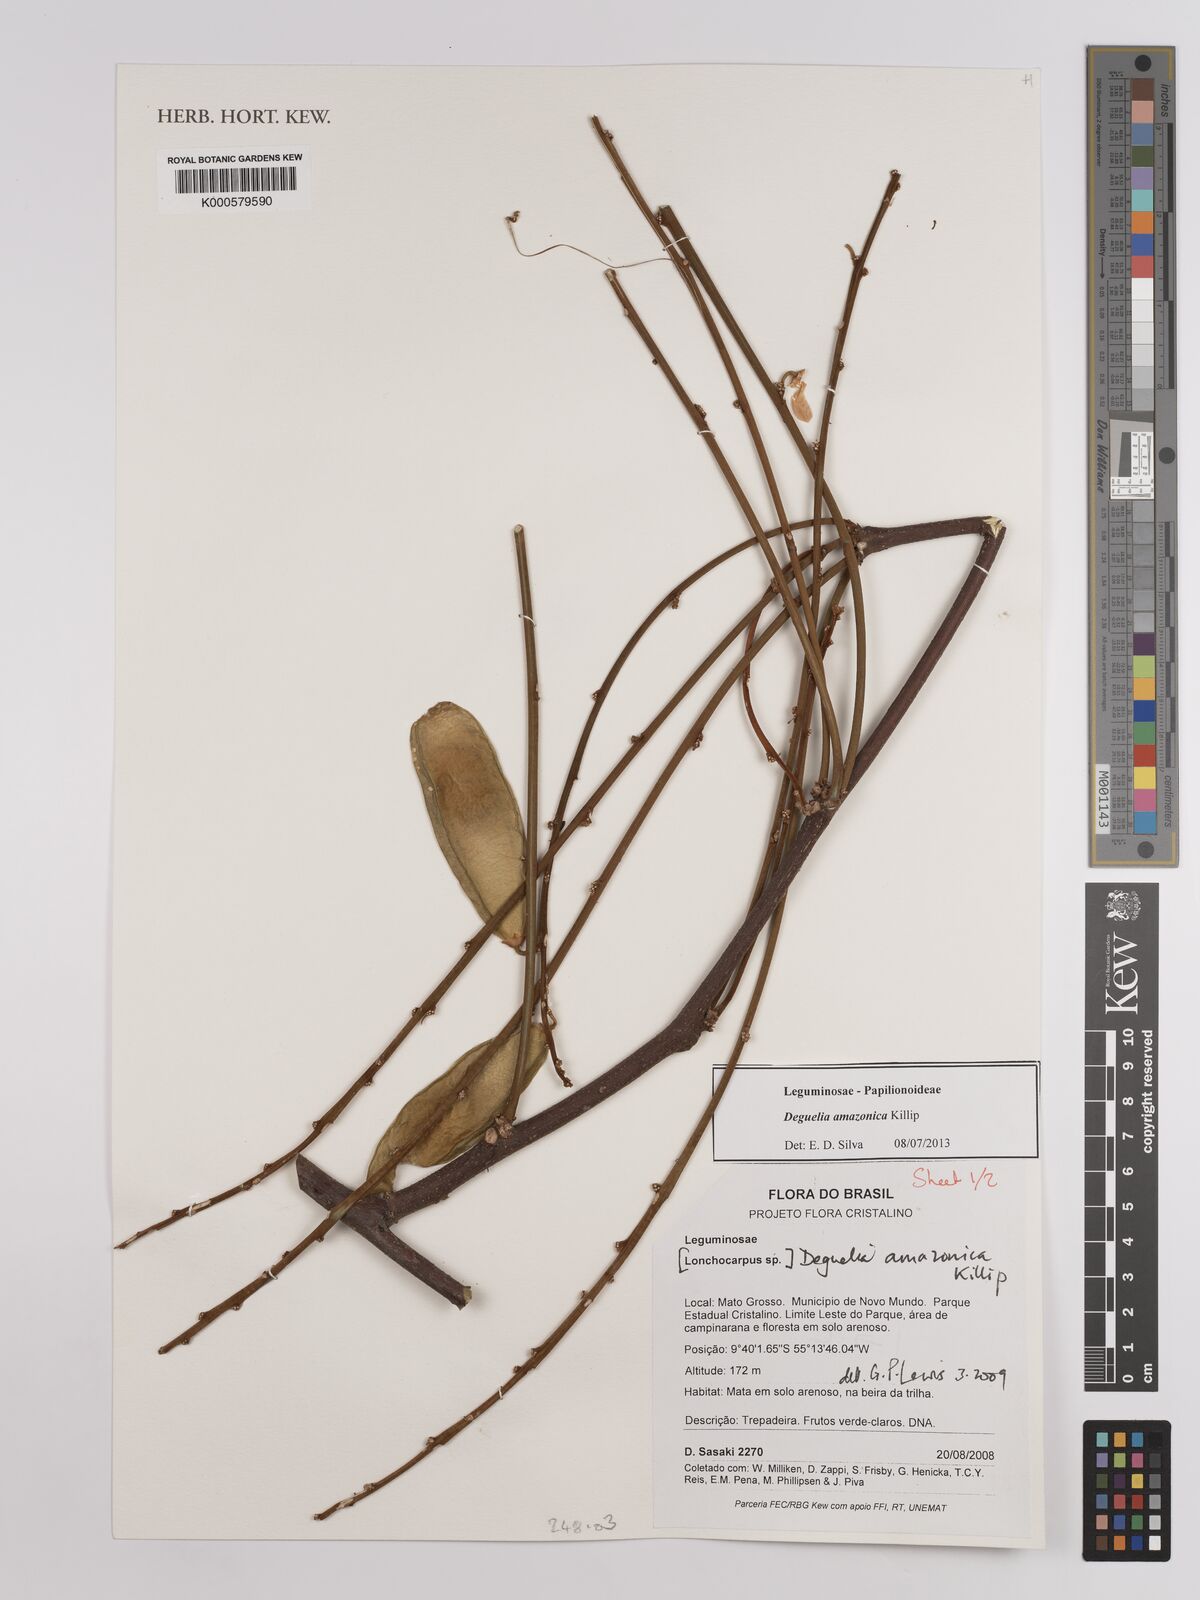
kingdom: Plantae
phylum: Tracheophyta
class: Magnoliopsida
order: Fabales
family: Fabaceae
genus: Deguelia
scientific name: Deguelia amazonica
